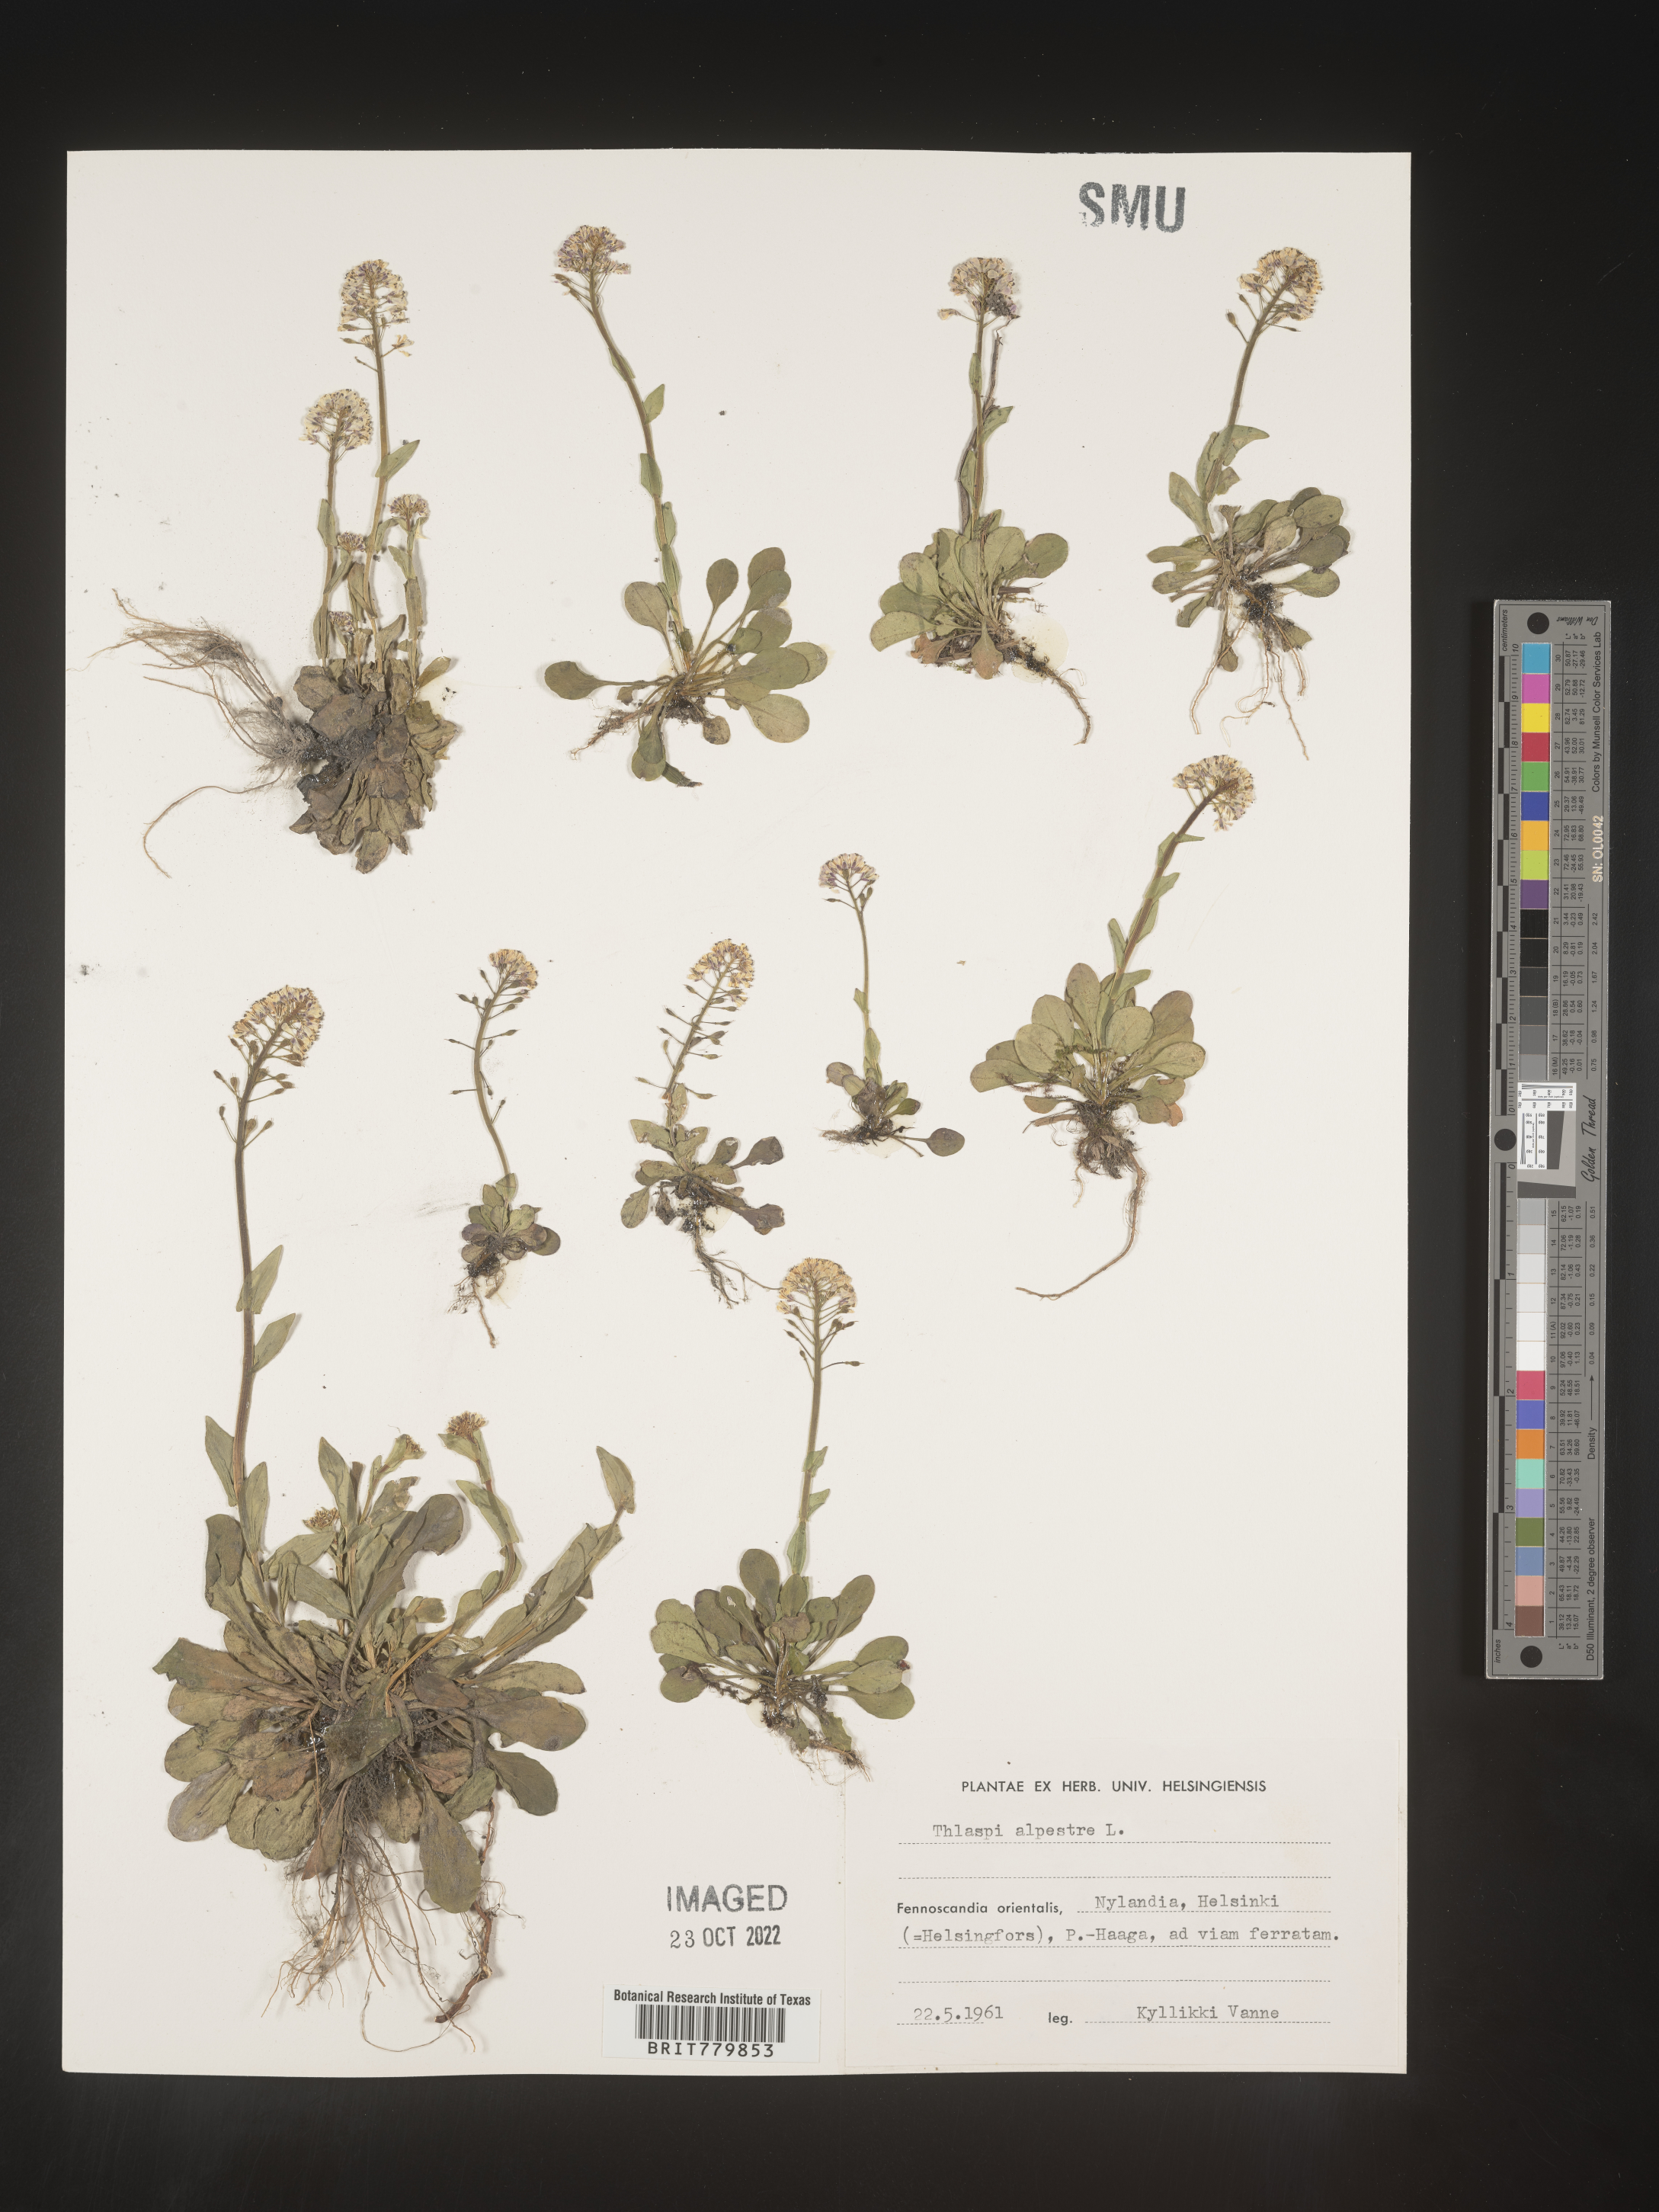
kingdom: Plantae
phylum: Tracheophyta
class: Magnoliopsida
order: Brassicales
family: Brassicaceae
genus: Thlaspi
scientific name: Thlaspi
